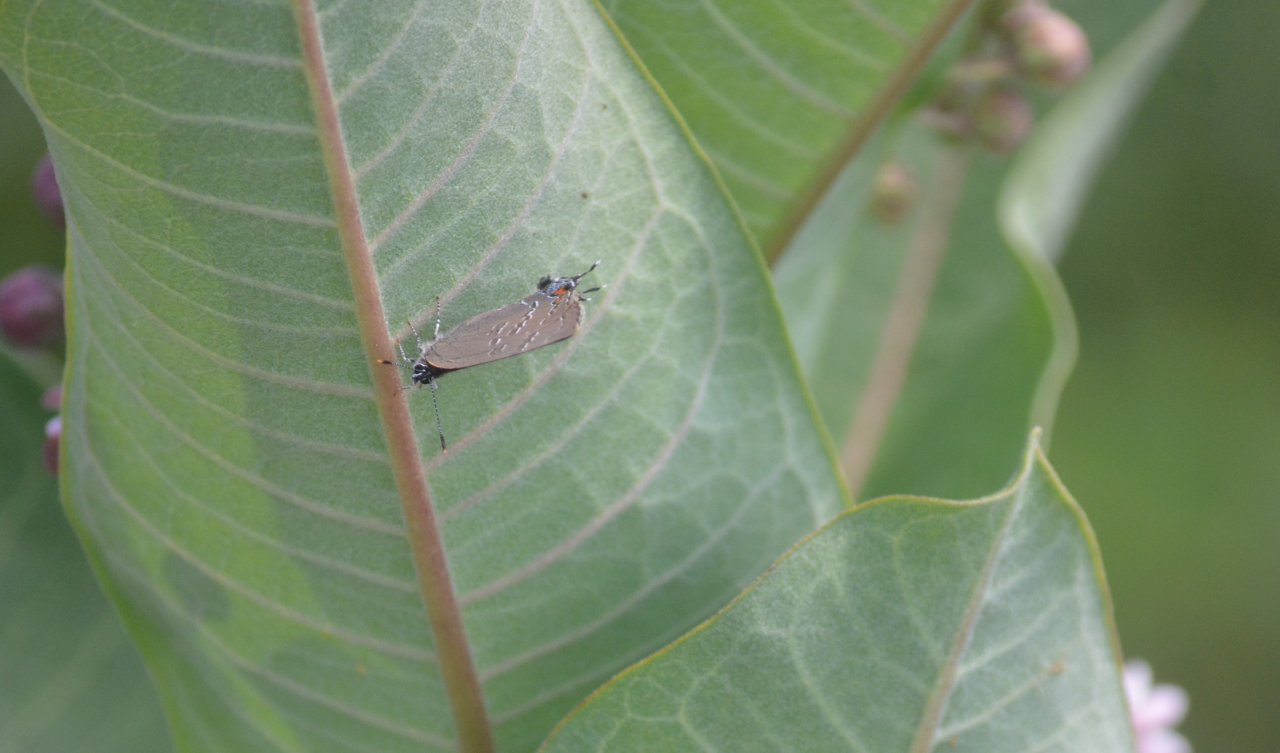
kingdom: Animalia
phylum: Arthropoda
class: Insecta
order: Lepidoptera
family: Lycaenidae
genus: Satyrium
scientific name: Satyrium calanus
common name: Banded Hairstreak
